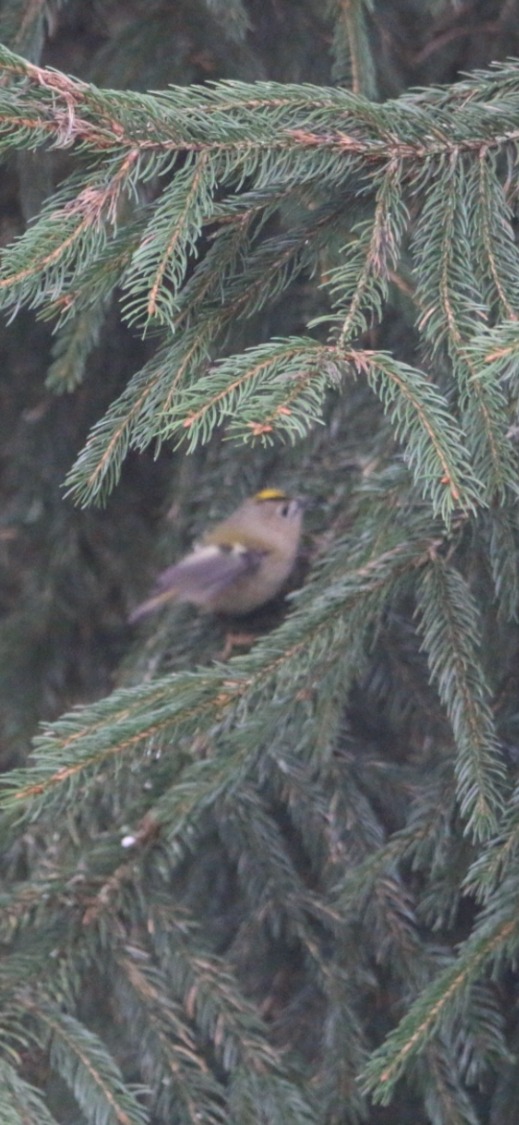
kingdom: Animalia
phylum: Chordata
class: Aves
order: Passeriformes
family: Regulidae
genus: Regulus
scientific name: Regulus regulus
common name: Fuglekonge
